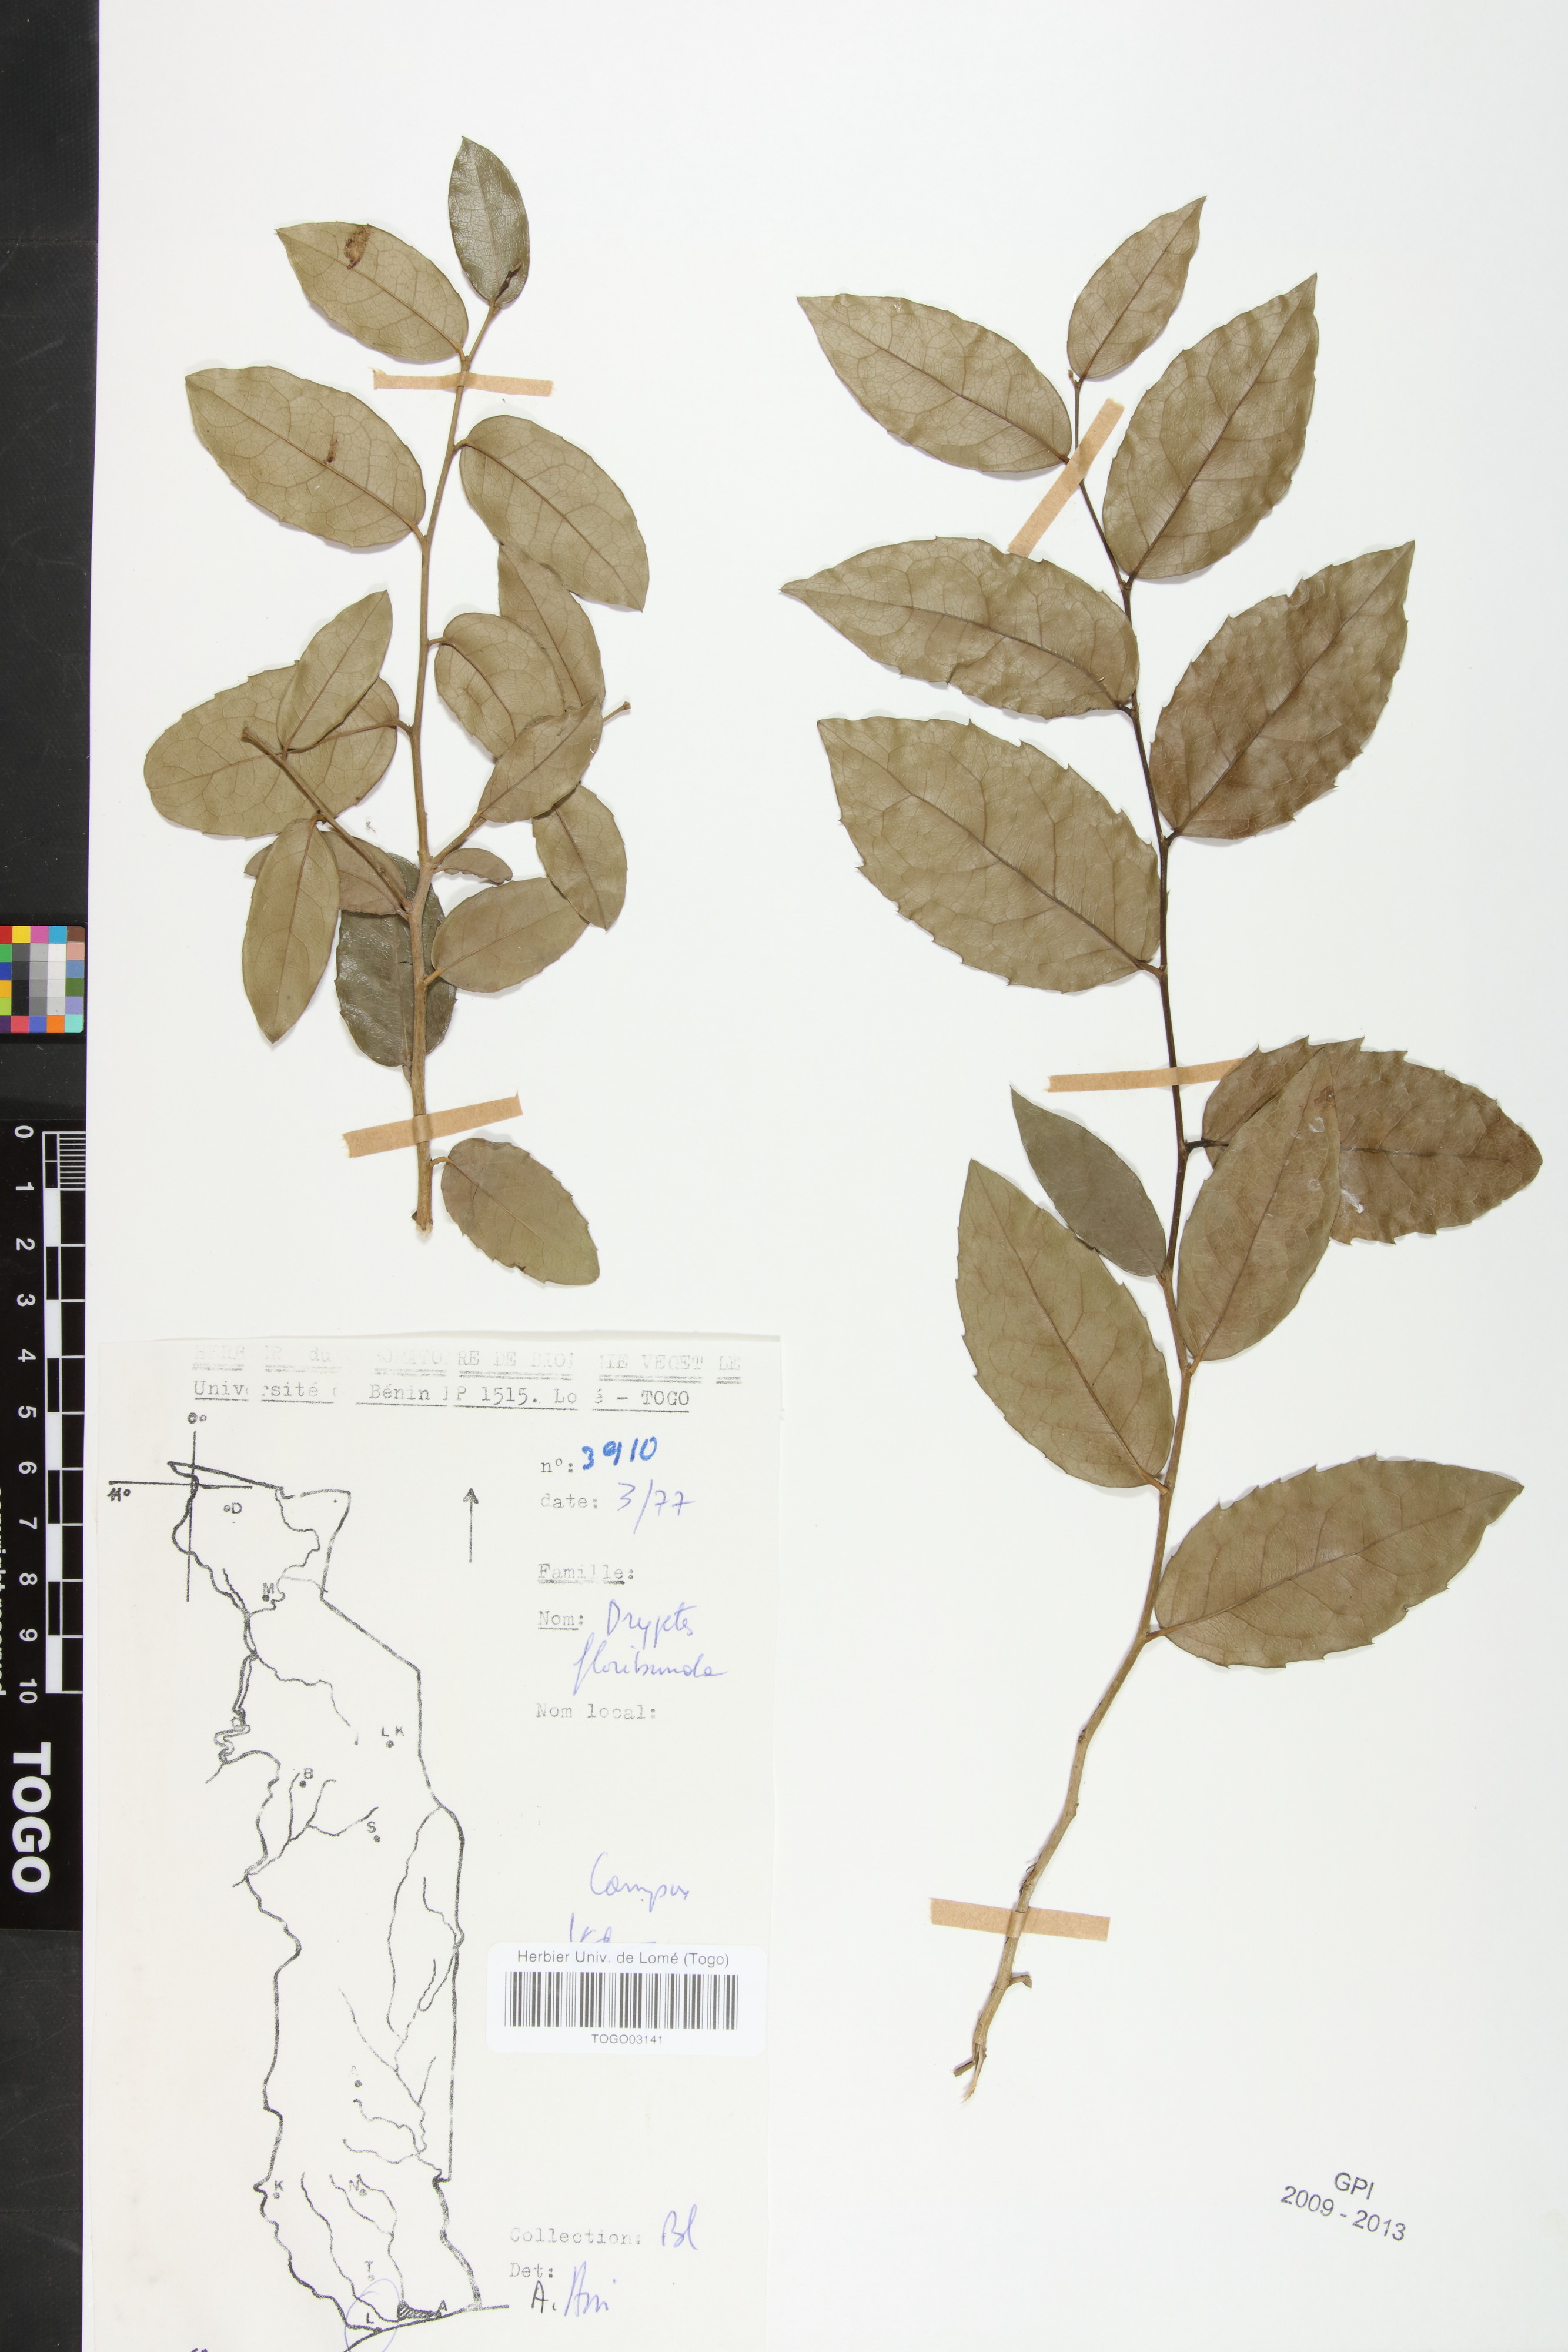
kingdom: Plantae
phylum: Tracheophyta
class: Magnoliopsida
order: Malpighiales
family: Putranjivaceae
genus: Drypetes
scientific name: Drypetes floribunda
